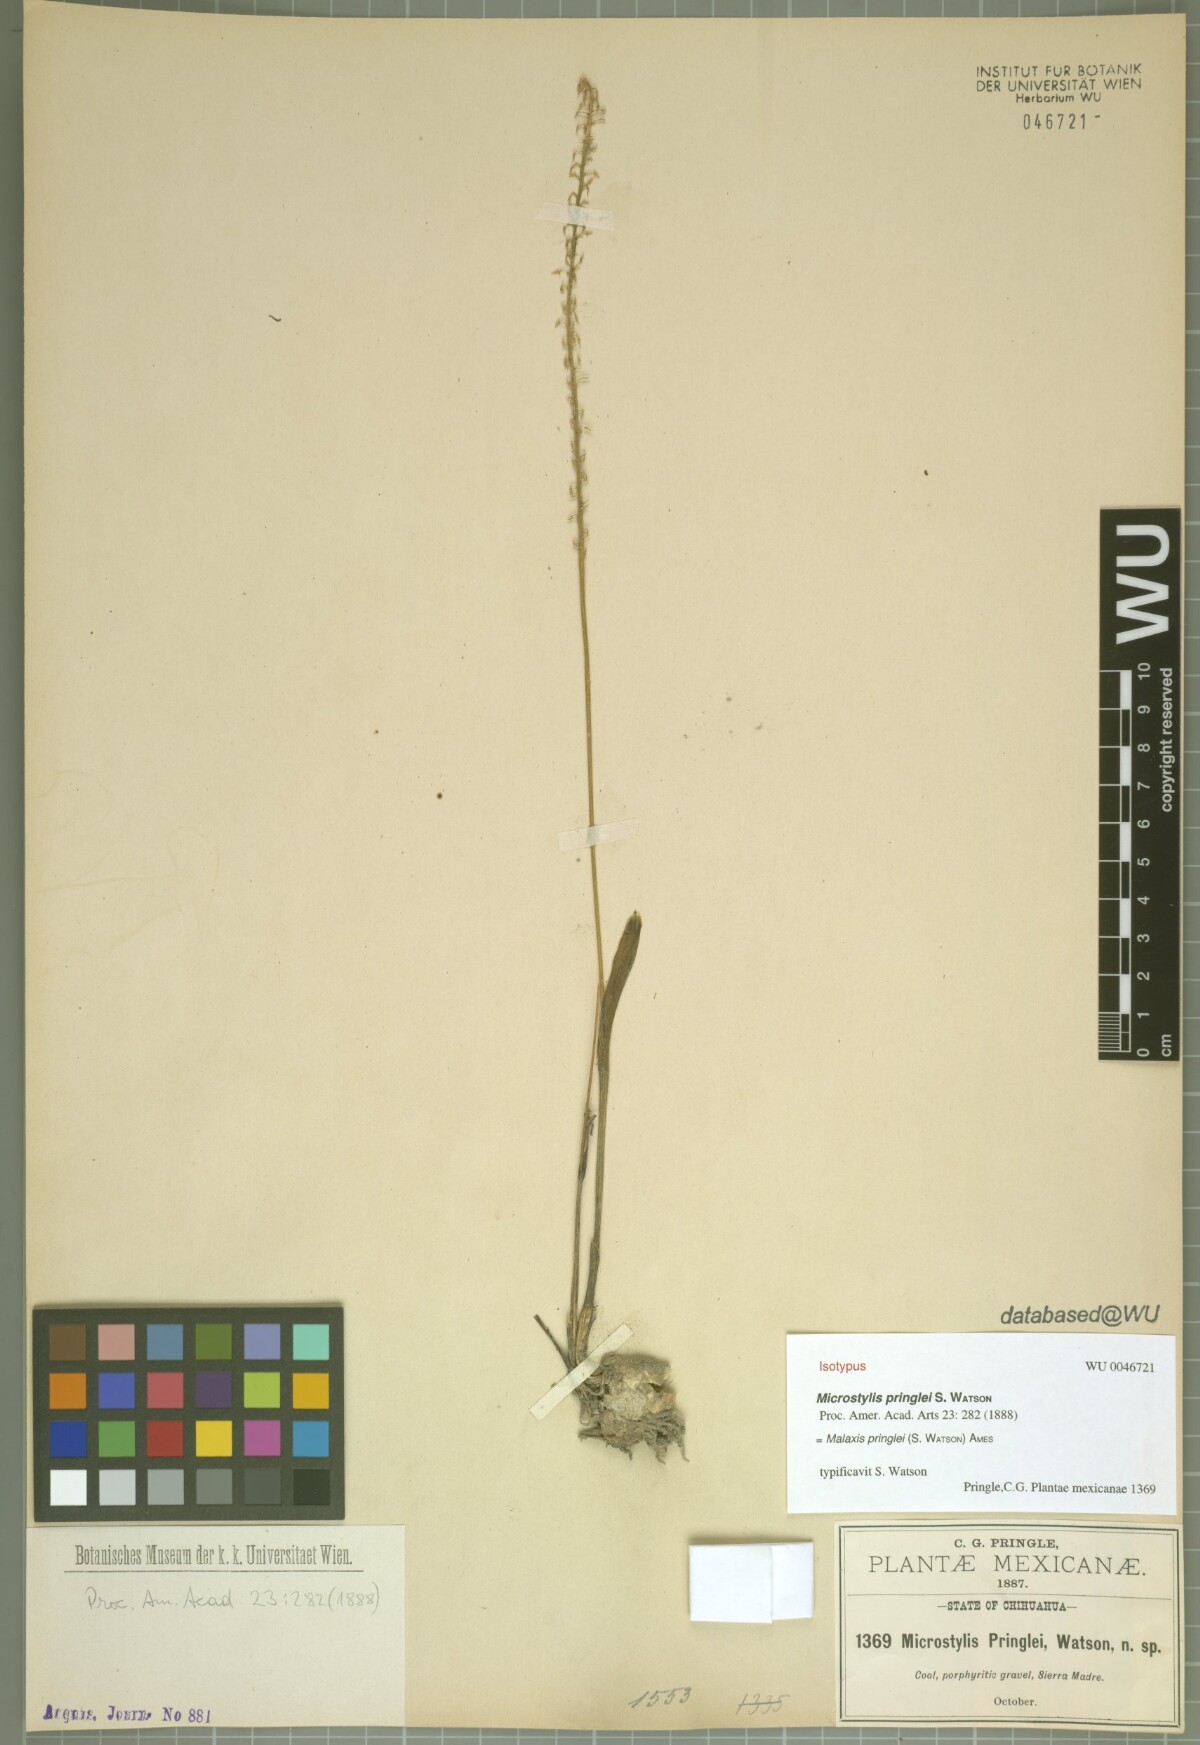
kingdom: Plantae
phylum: Tracheophyta
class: Liliopsida
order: Asparagales
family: Orchidaceae
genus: Malaxis
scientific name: Malaxis pringlei
